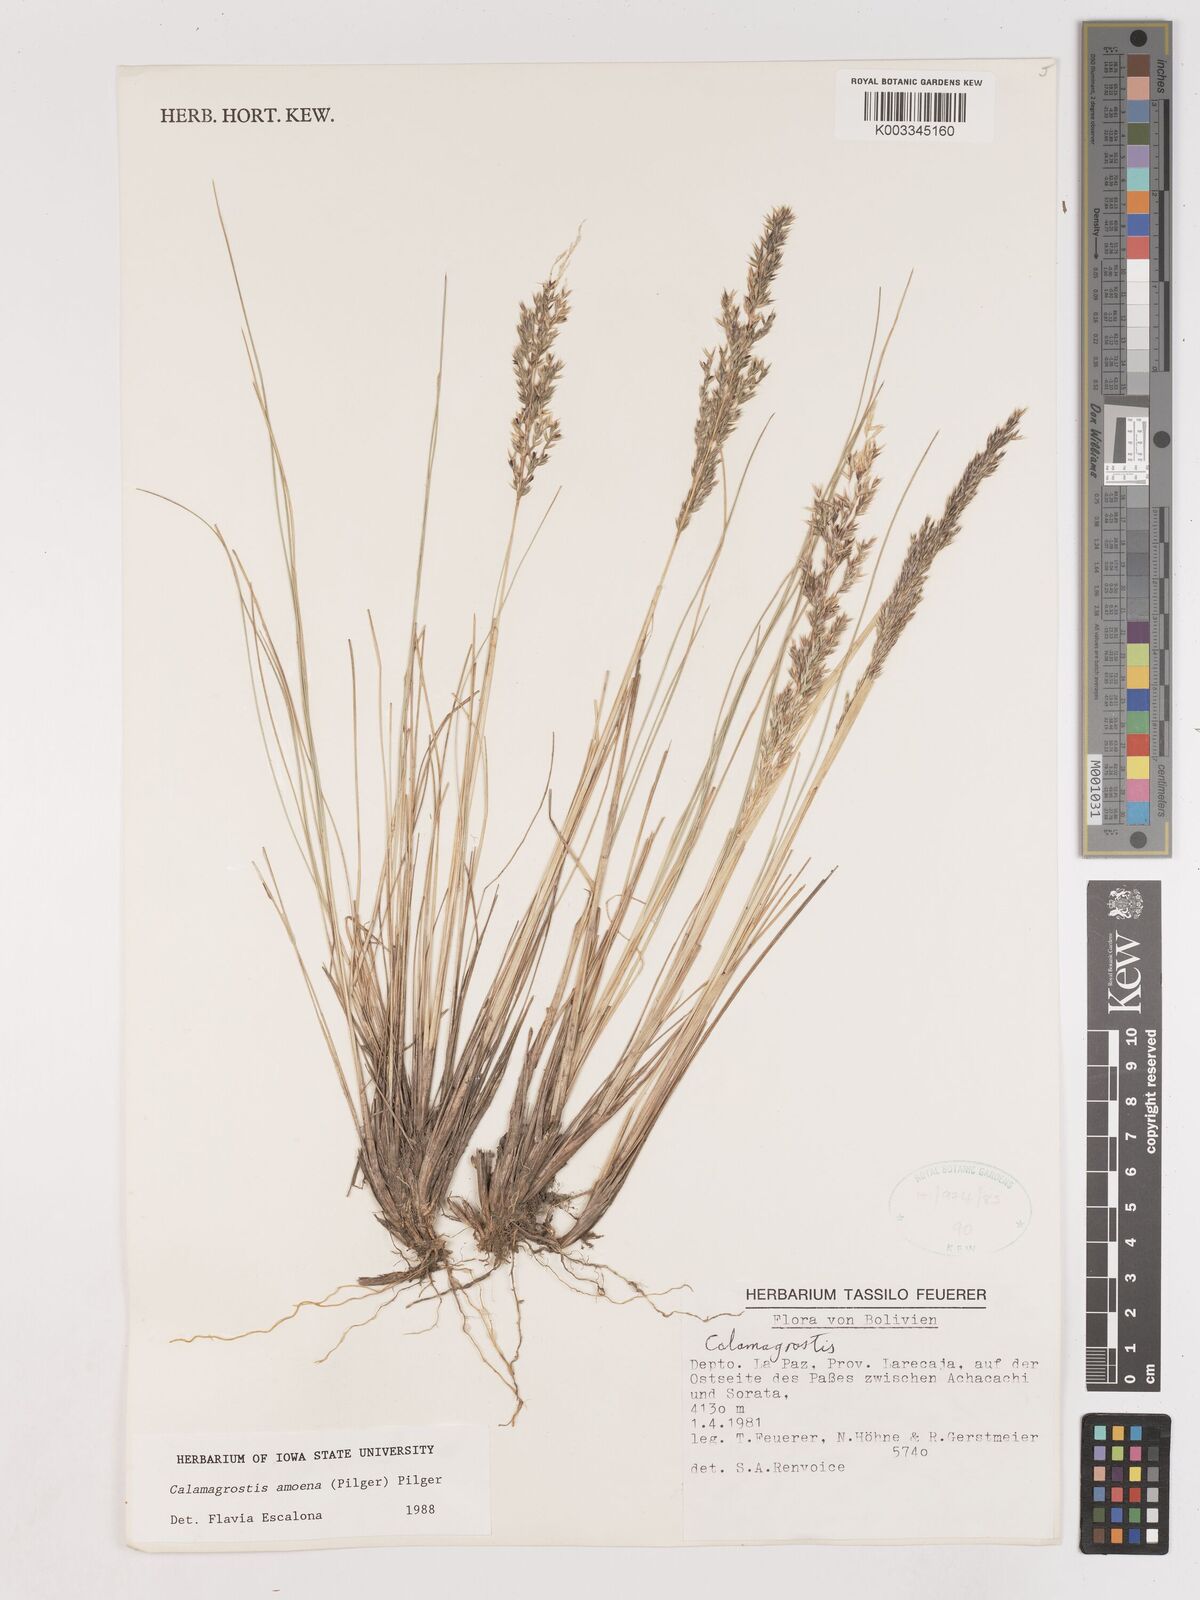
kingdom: Plantae
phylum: Tracheophyta
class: Liliopsida
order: Poales
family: Poaceae
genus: Calamagrostis
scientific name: Calamagrostis
